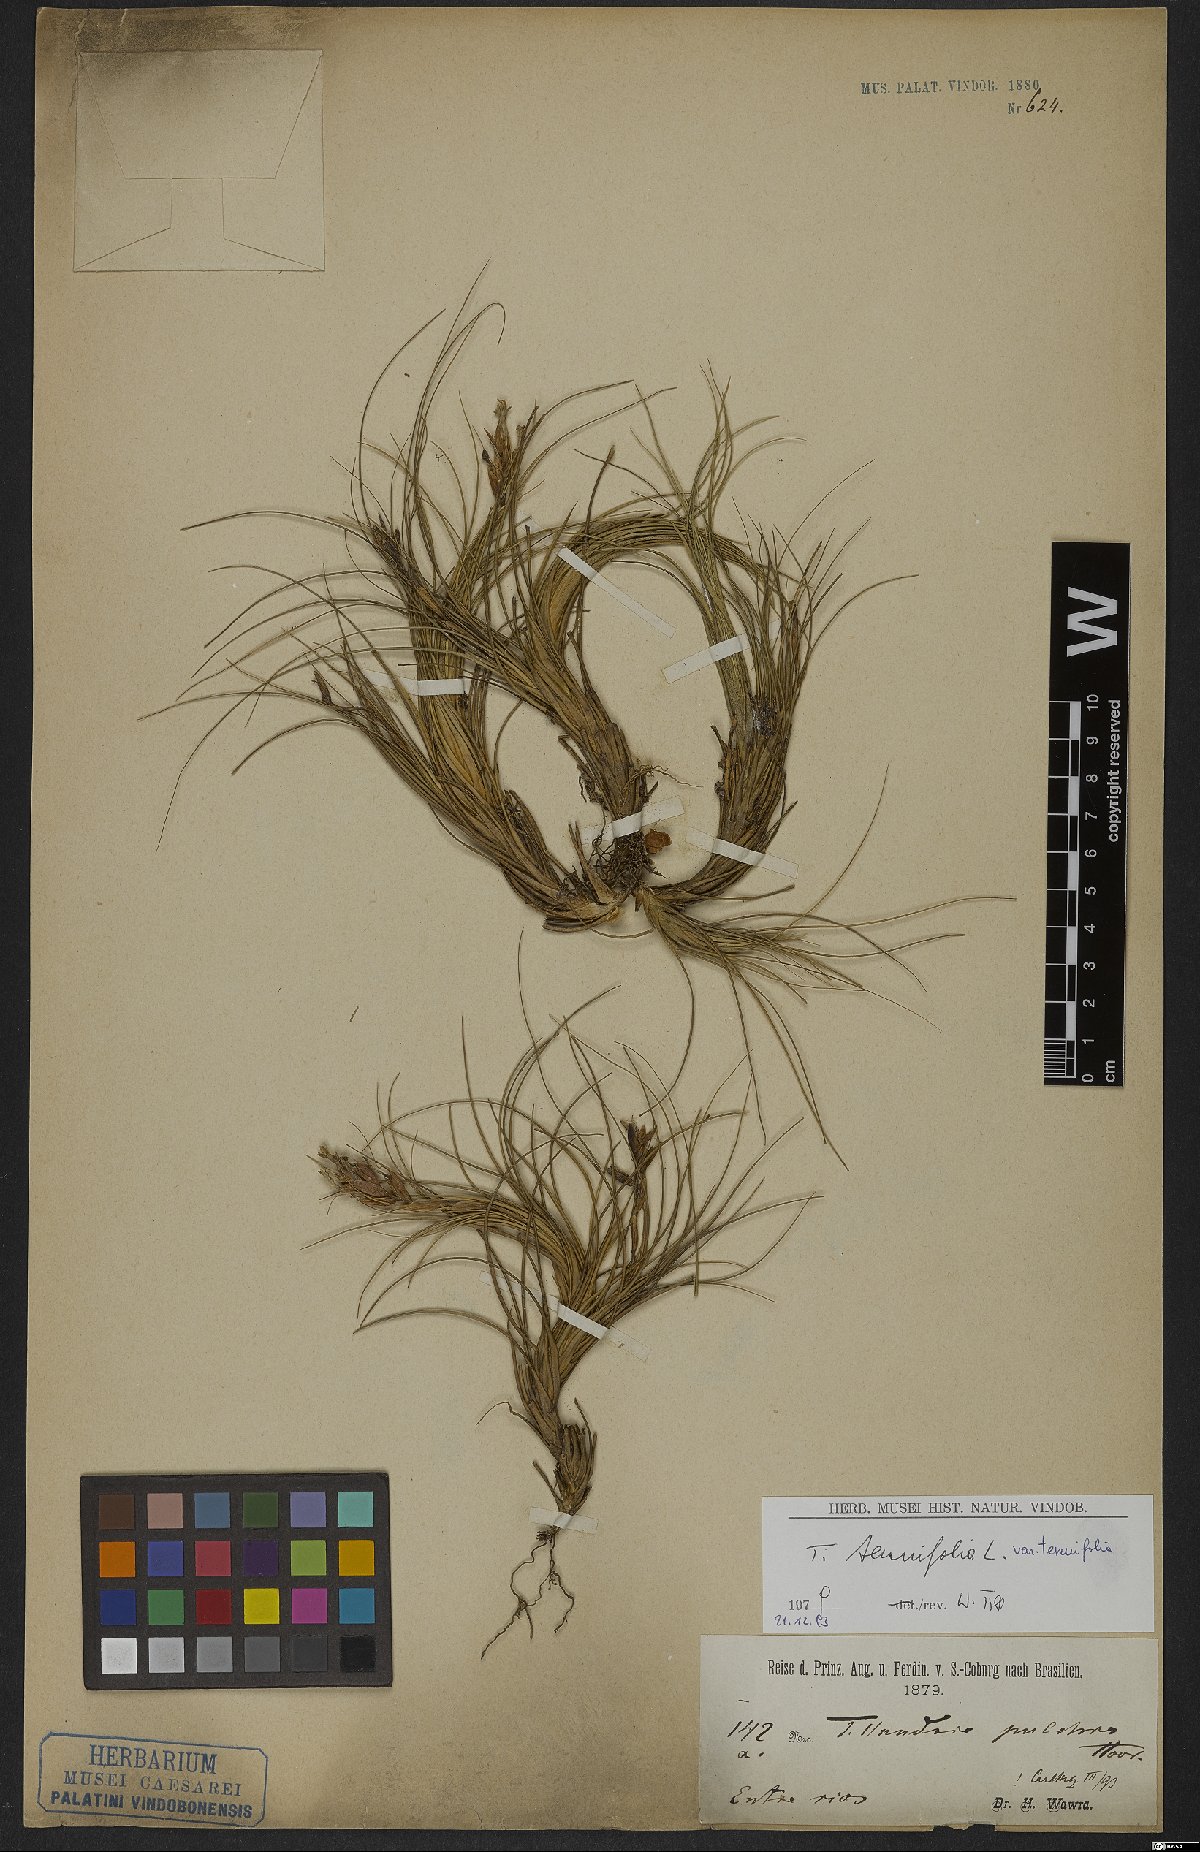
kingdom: Plantae
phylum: Tracheophyta
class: Liliopsida
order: Poales
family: Bromeliaceae
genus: Tillandsia
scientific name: Tillandsia tenuifolia
